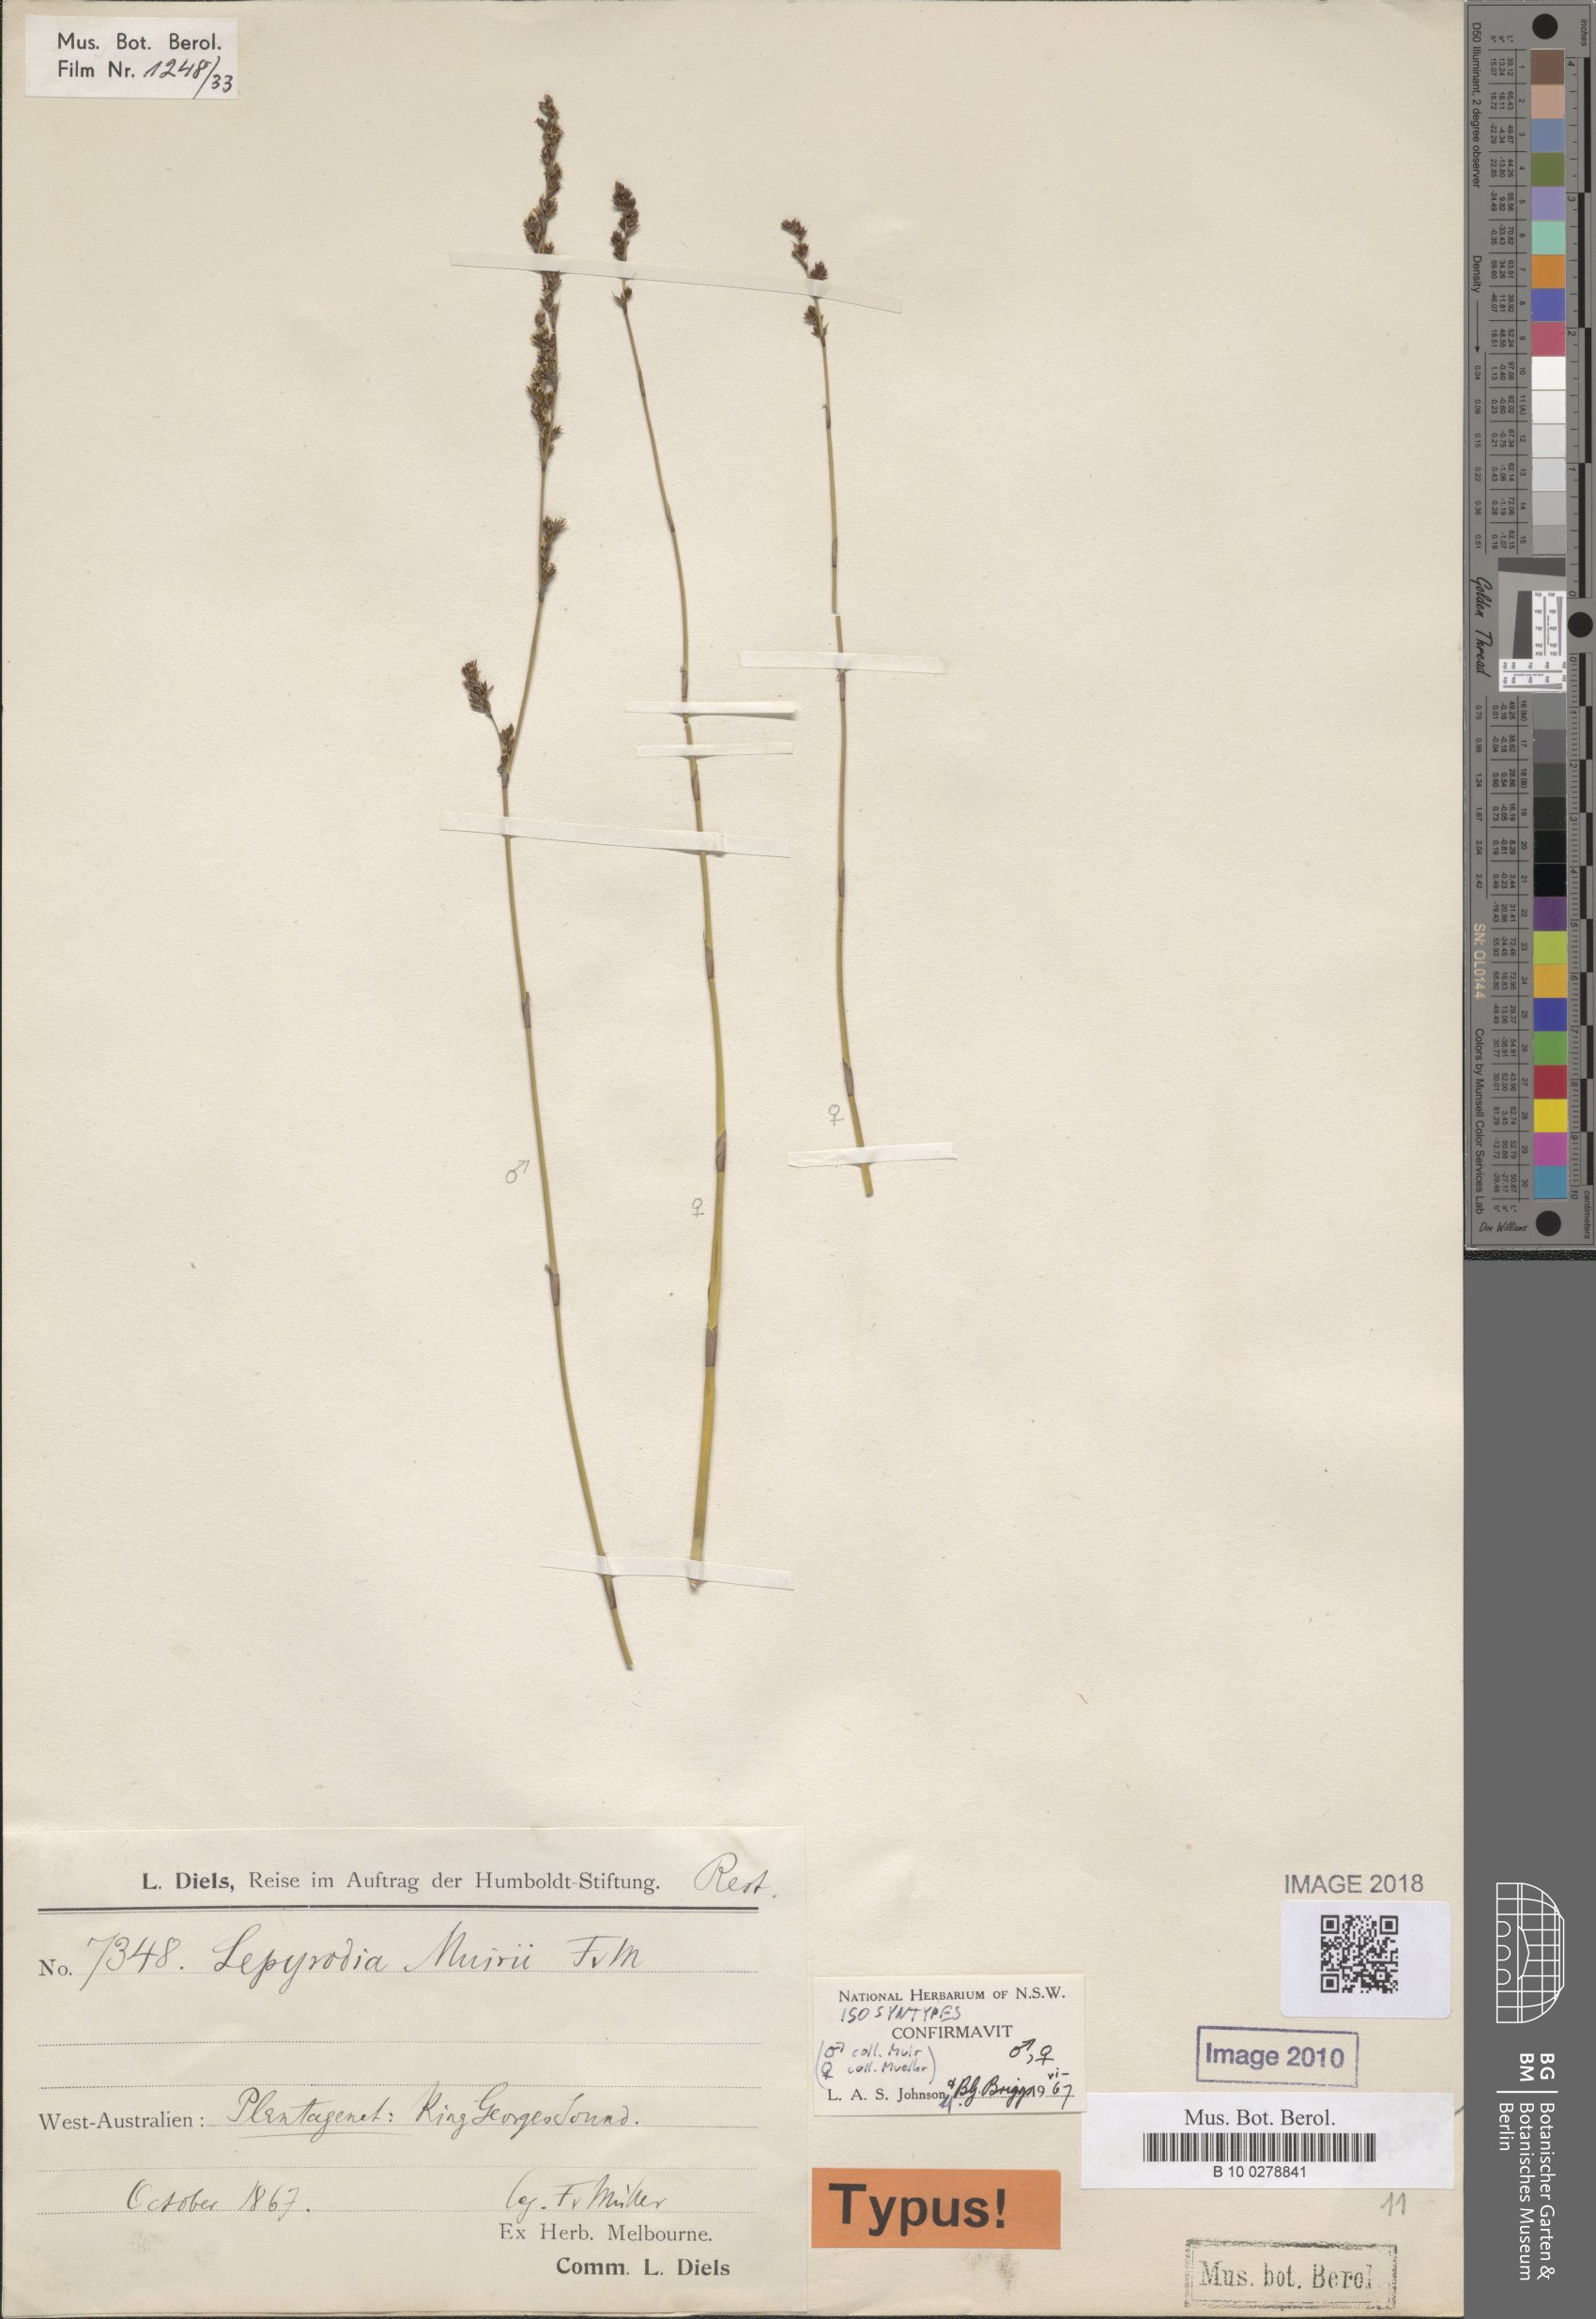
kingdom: Plantae
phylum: Tracheophyta
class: Liliopsida
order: Poales
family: Restionaceae
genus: Lepyrodia
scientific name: Lepyrodia muirii
